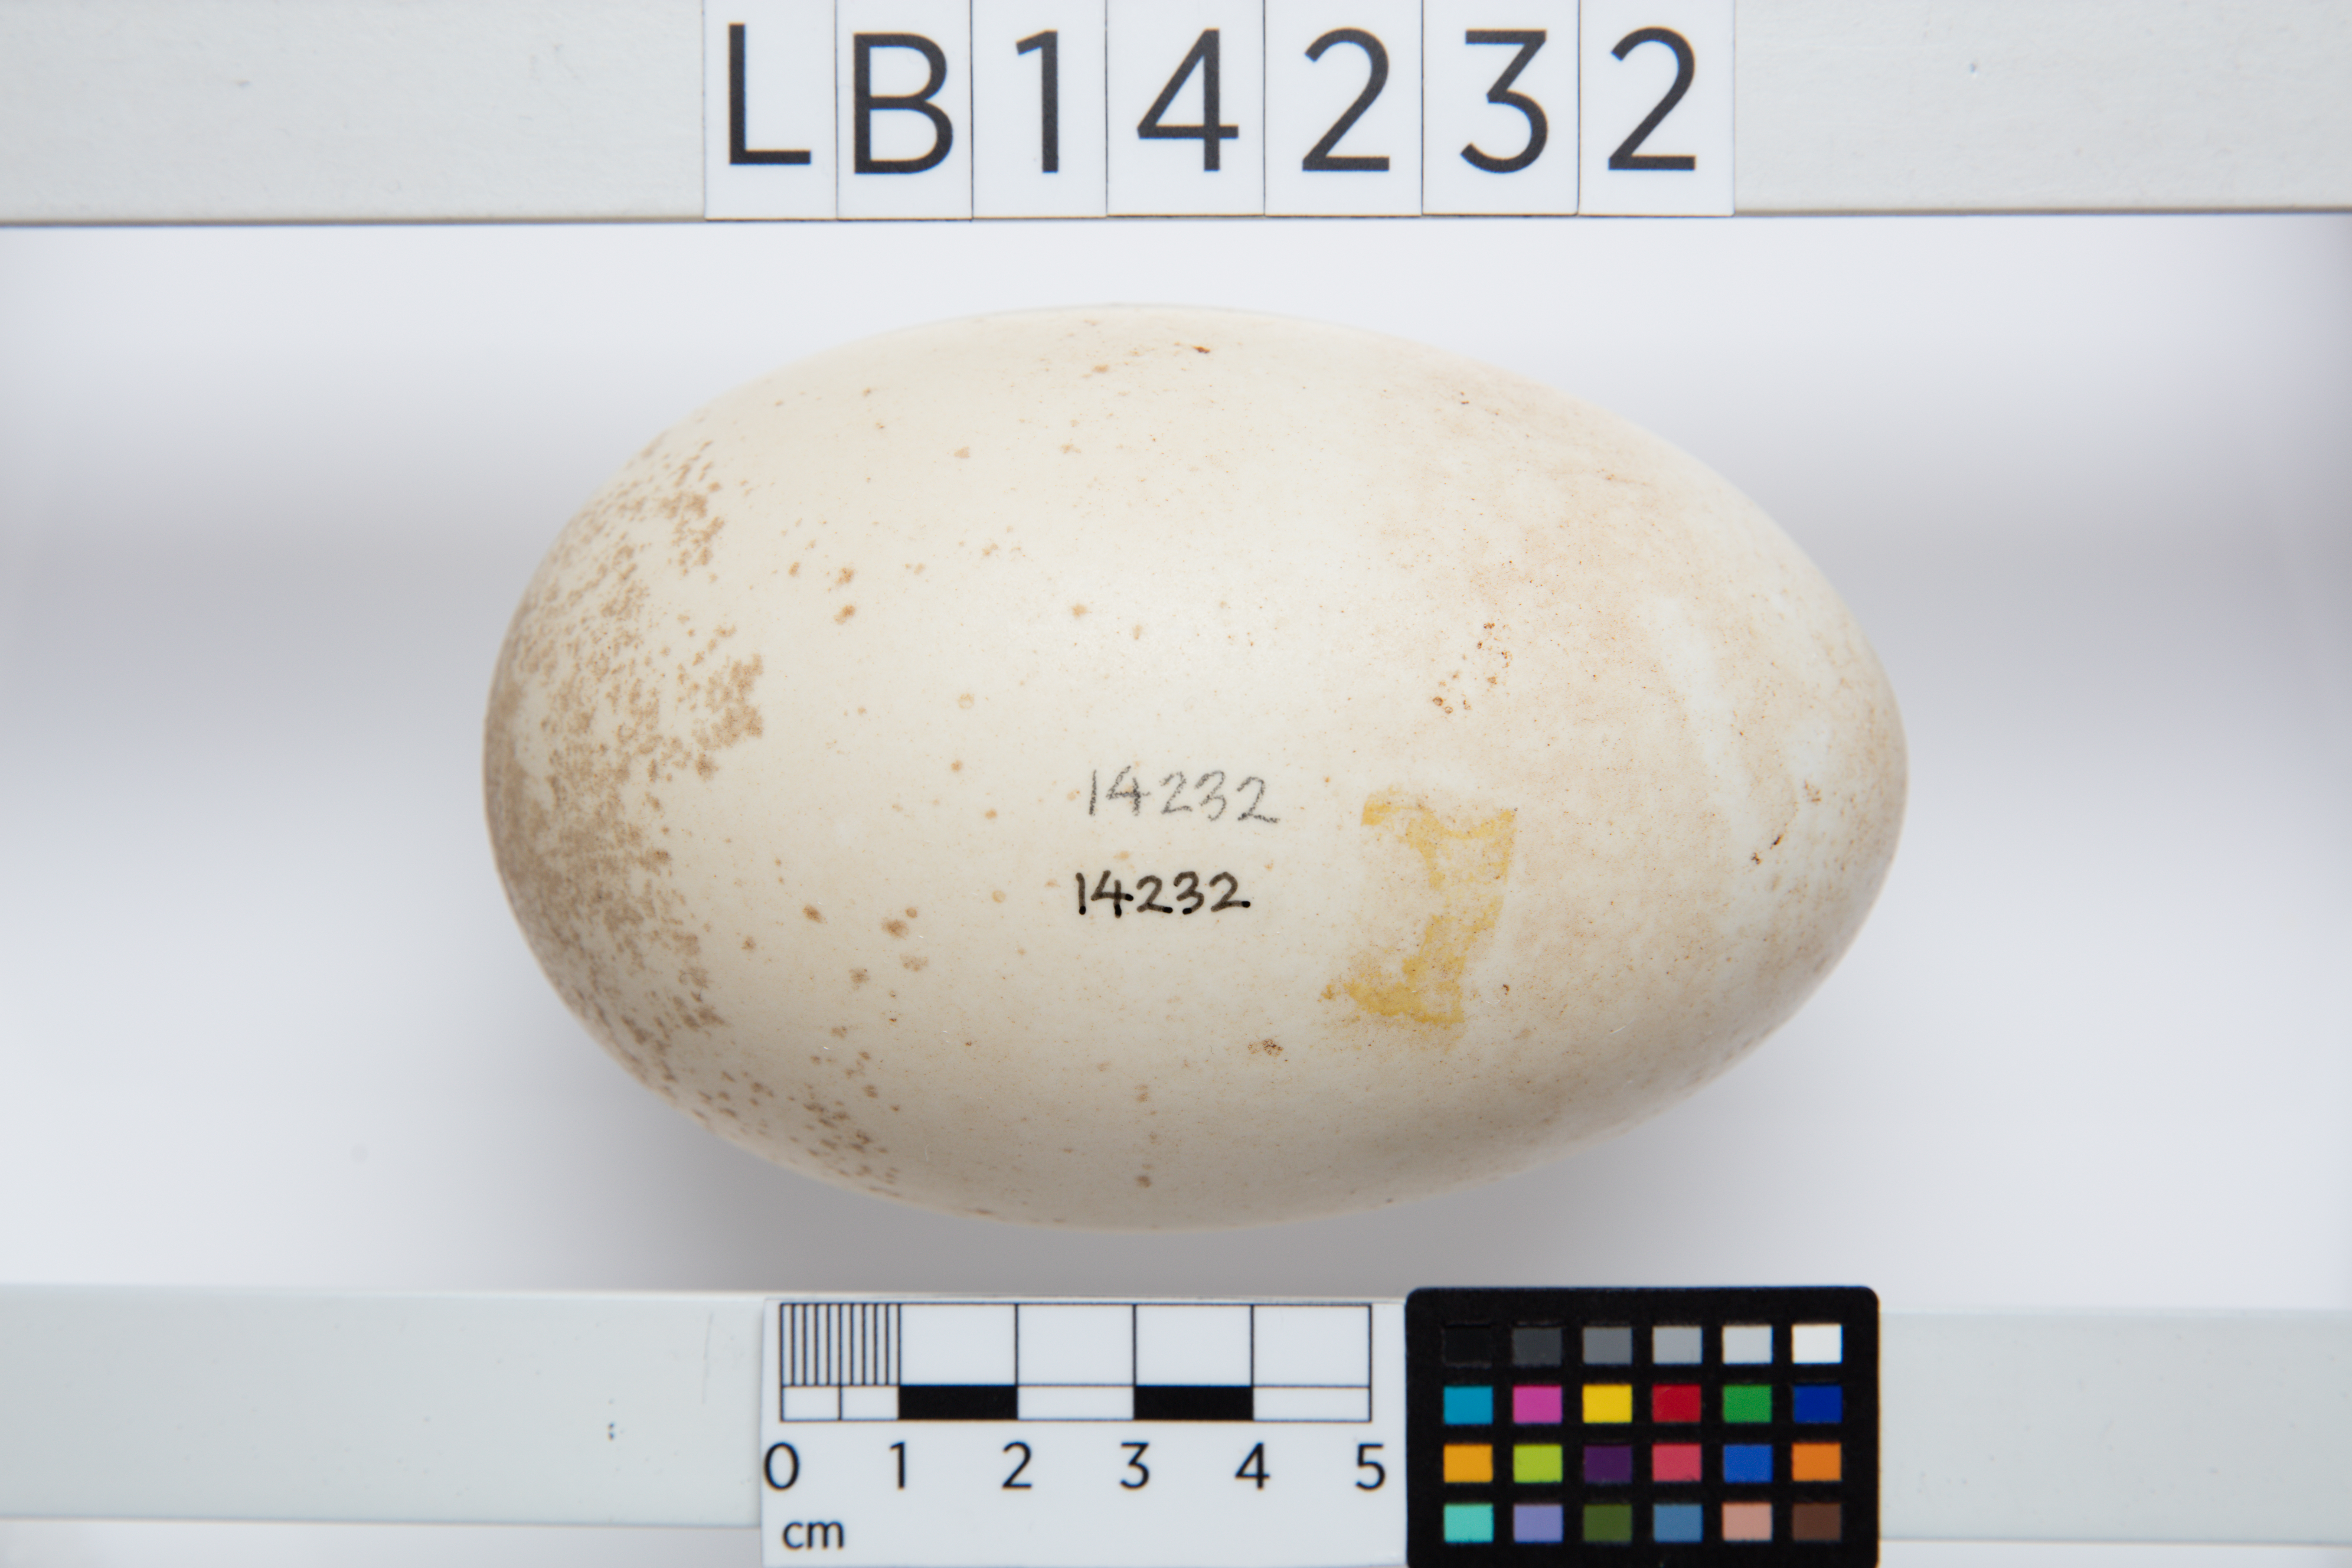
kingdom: Animalia
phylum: Chordata
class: Aves
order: Apterygiformes
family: Apterygidae
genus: Apteryx
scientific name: Apteryx mantelli
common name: North island brown kiwi
